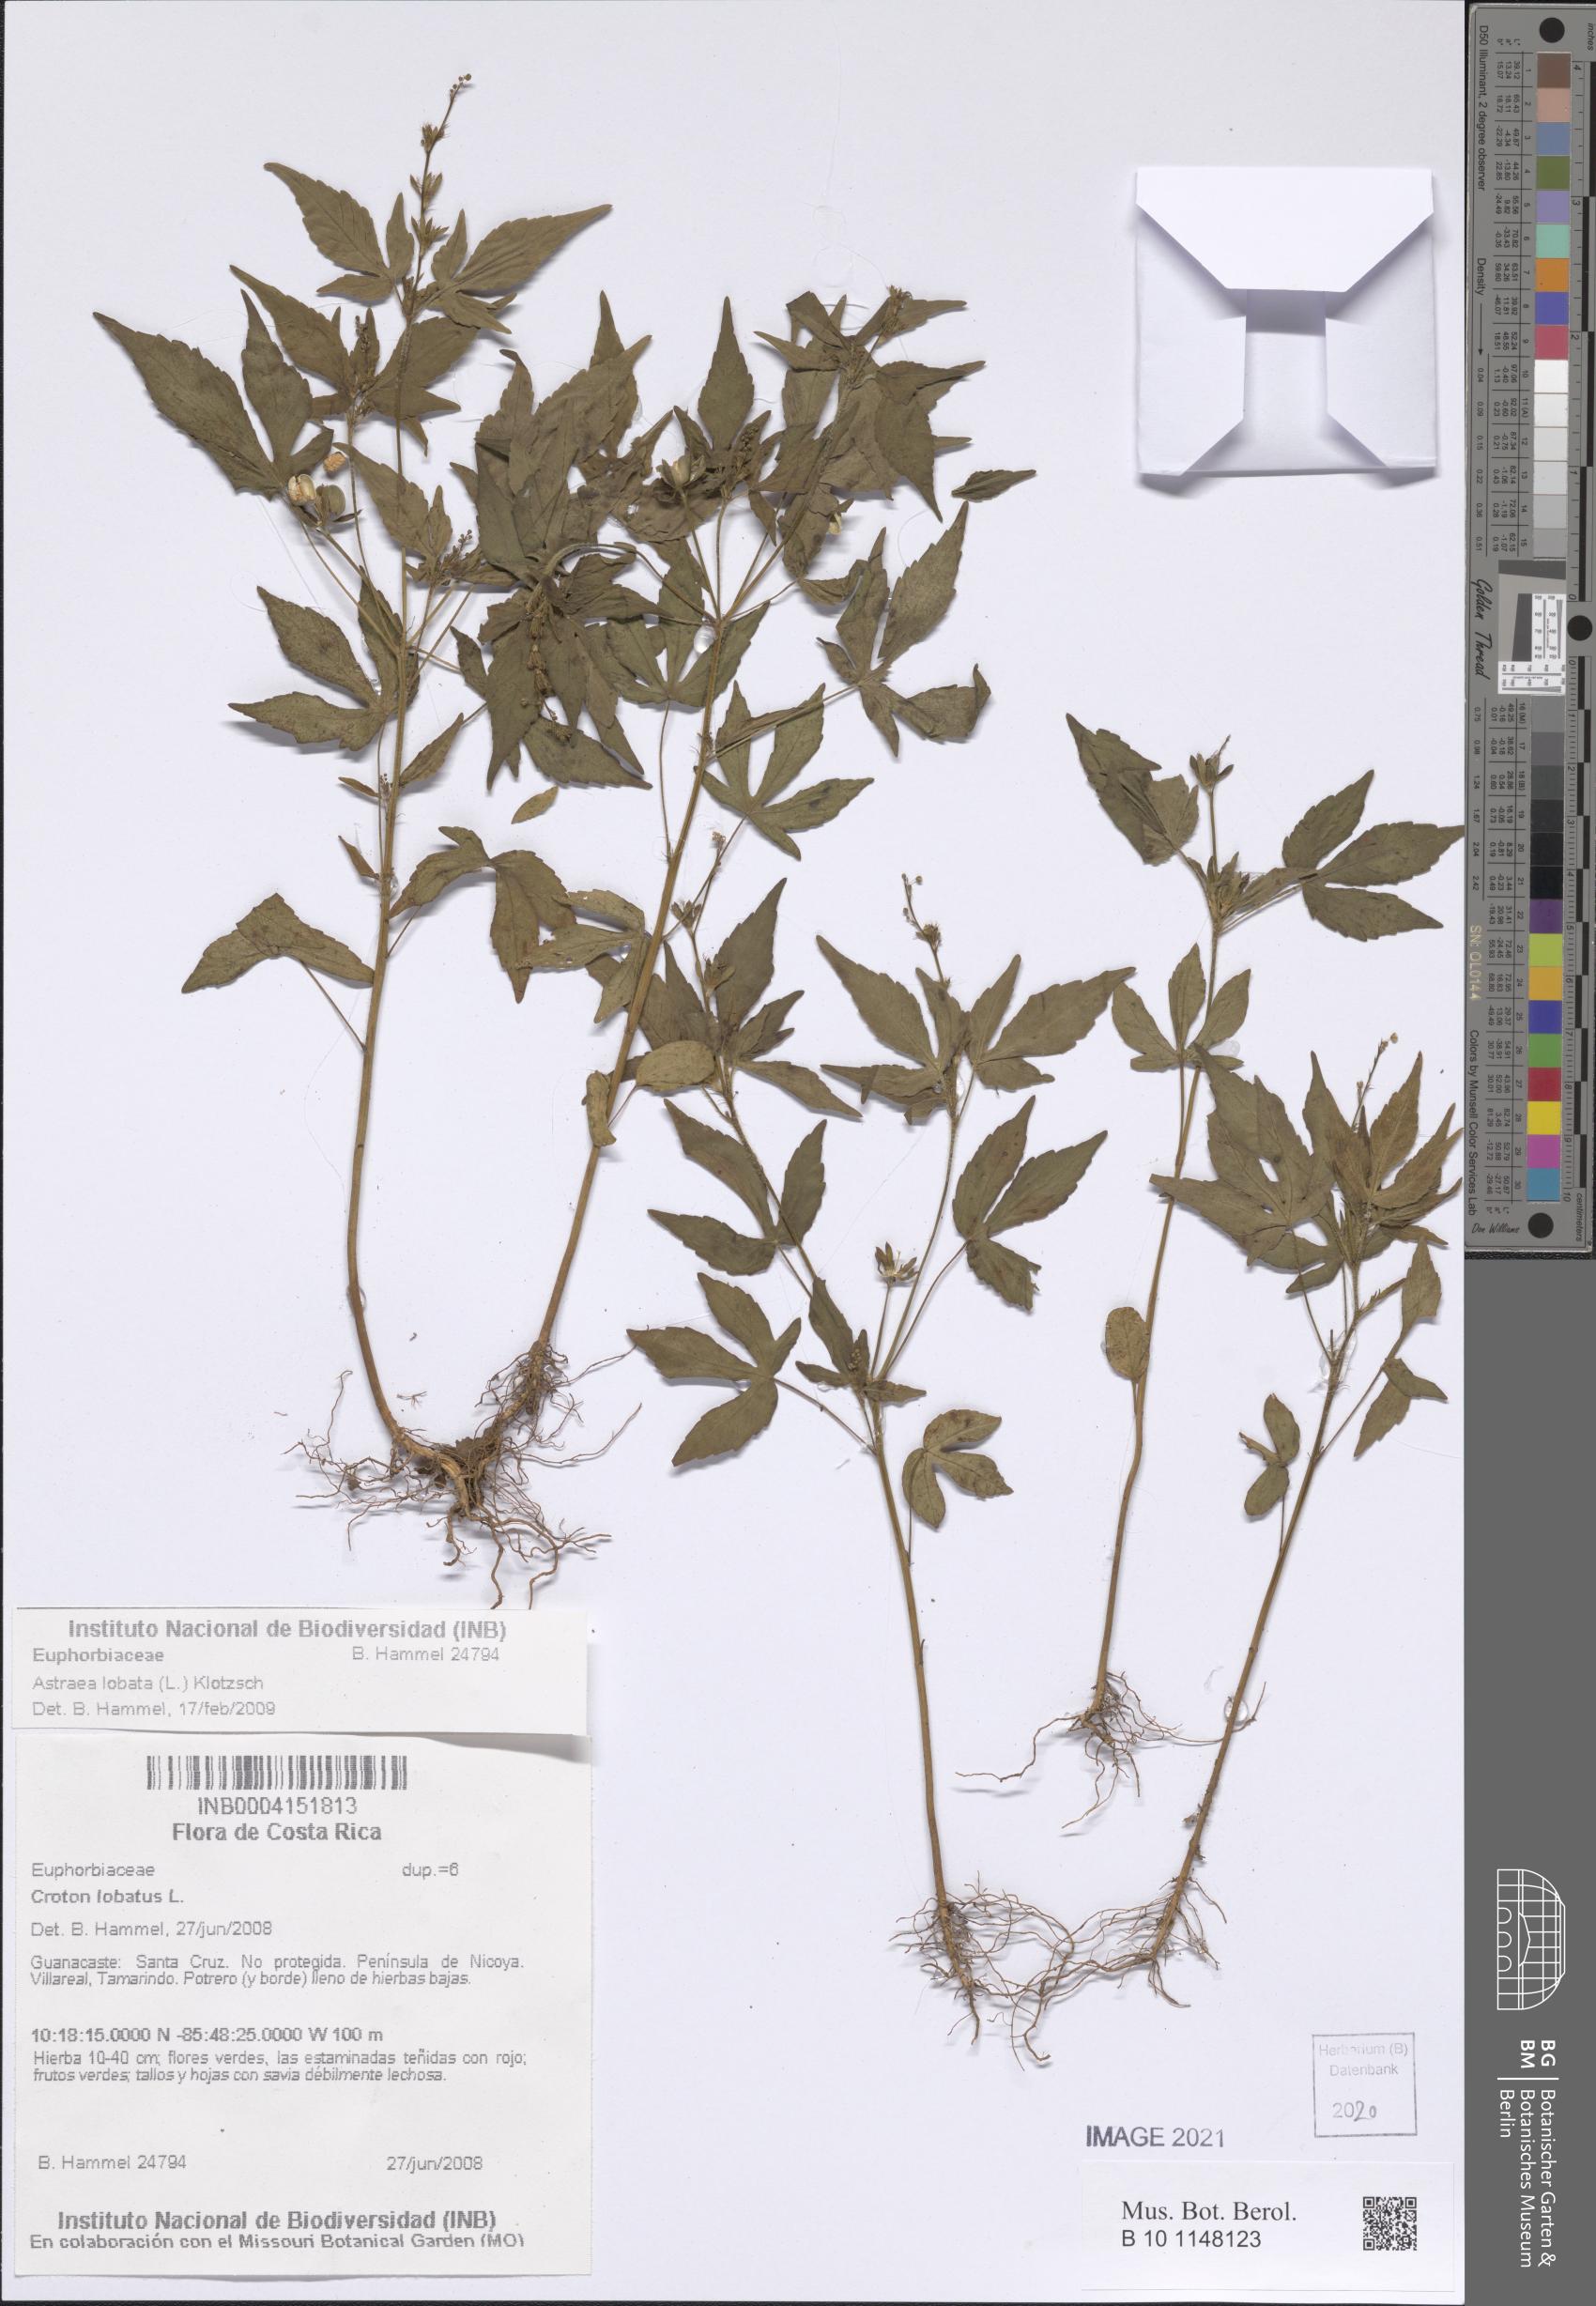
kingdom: Plantae
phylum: Tracheophyta
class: Magnoliopsida
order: Malpighiales
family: Euphorbiaceae
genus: Astraea
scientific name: Astraea lobata
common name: Lobed croton
